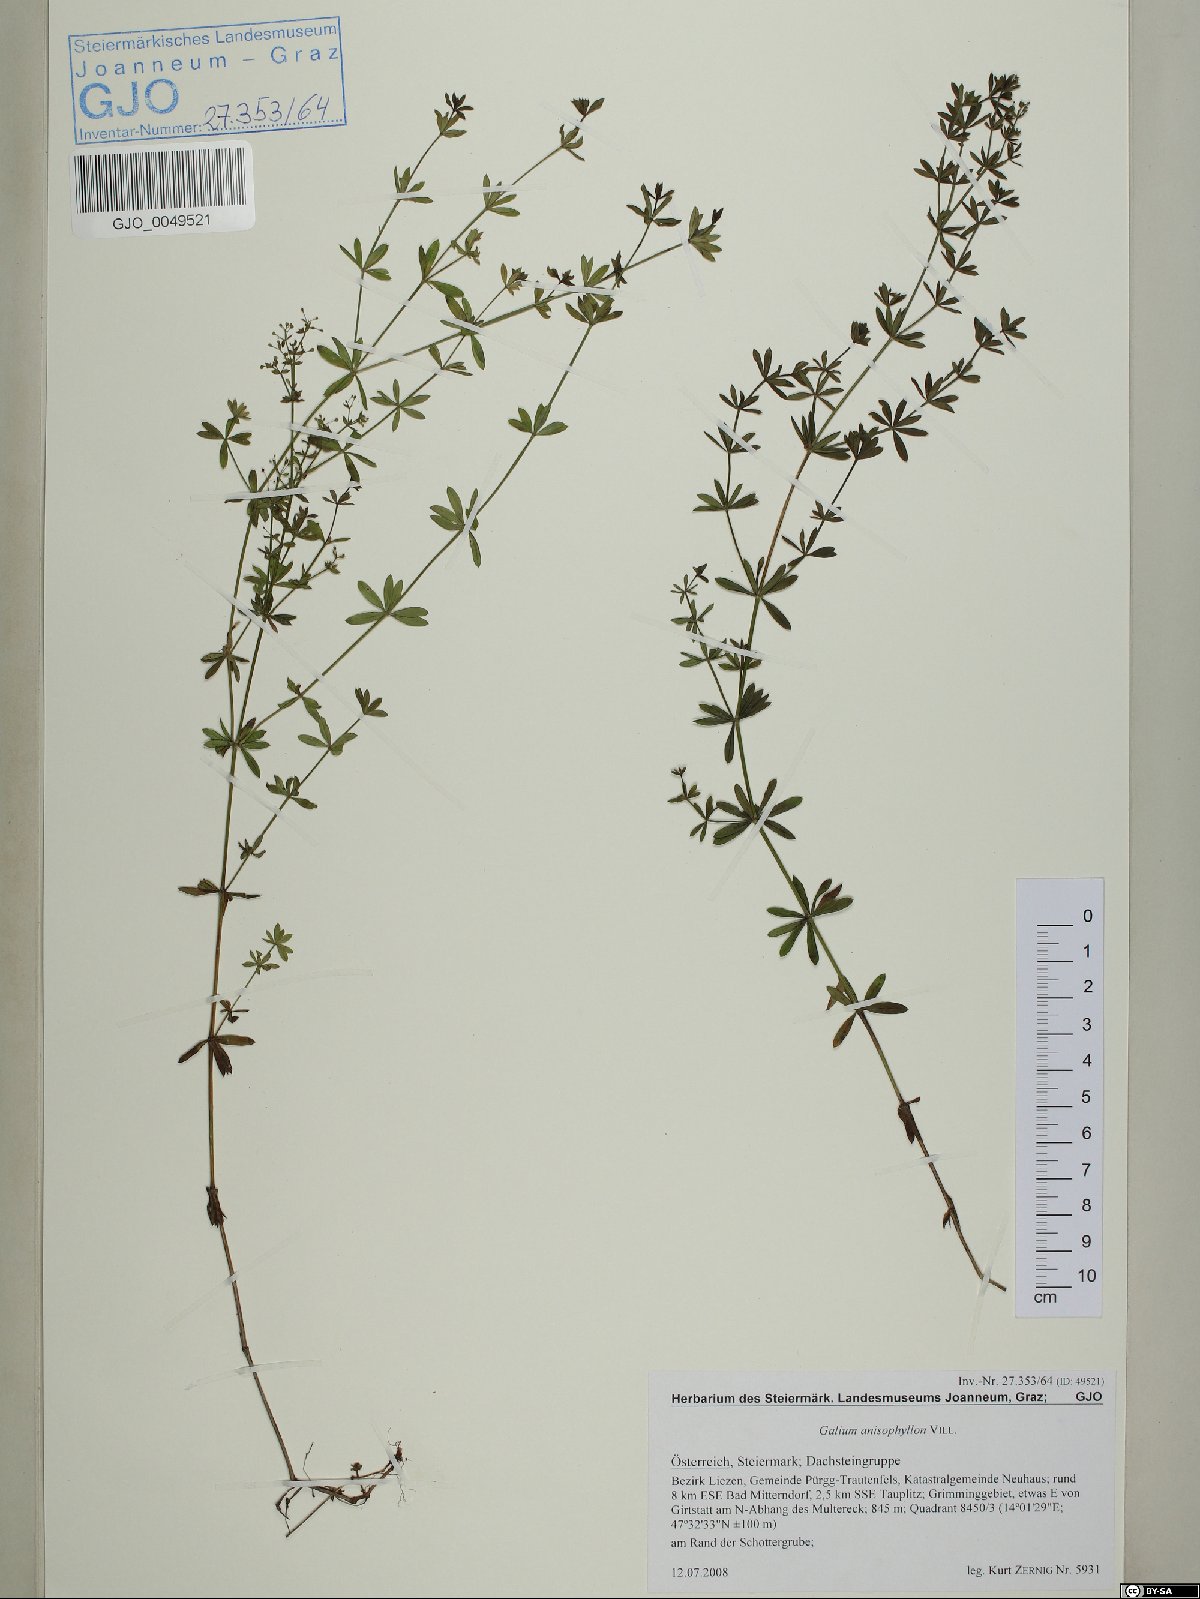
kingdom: Plantae
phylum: Tracheophyta
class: Magnoliopsida
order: Gentianales
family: Rubiaceae
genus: Galium
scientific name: Galium anisophyllon
